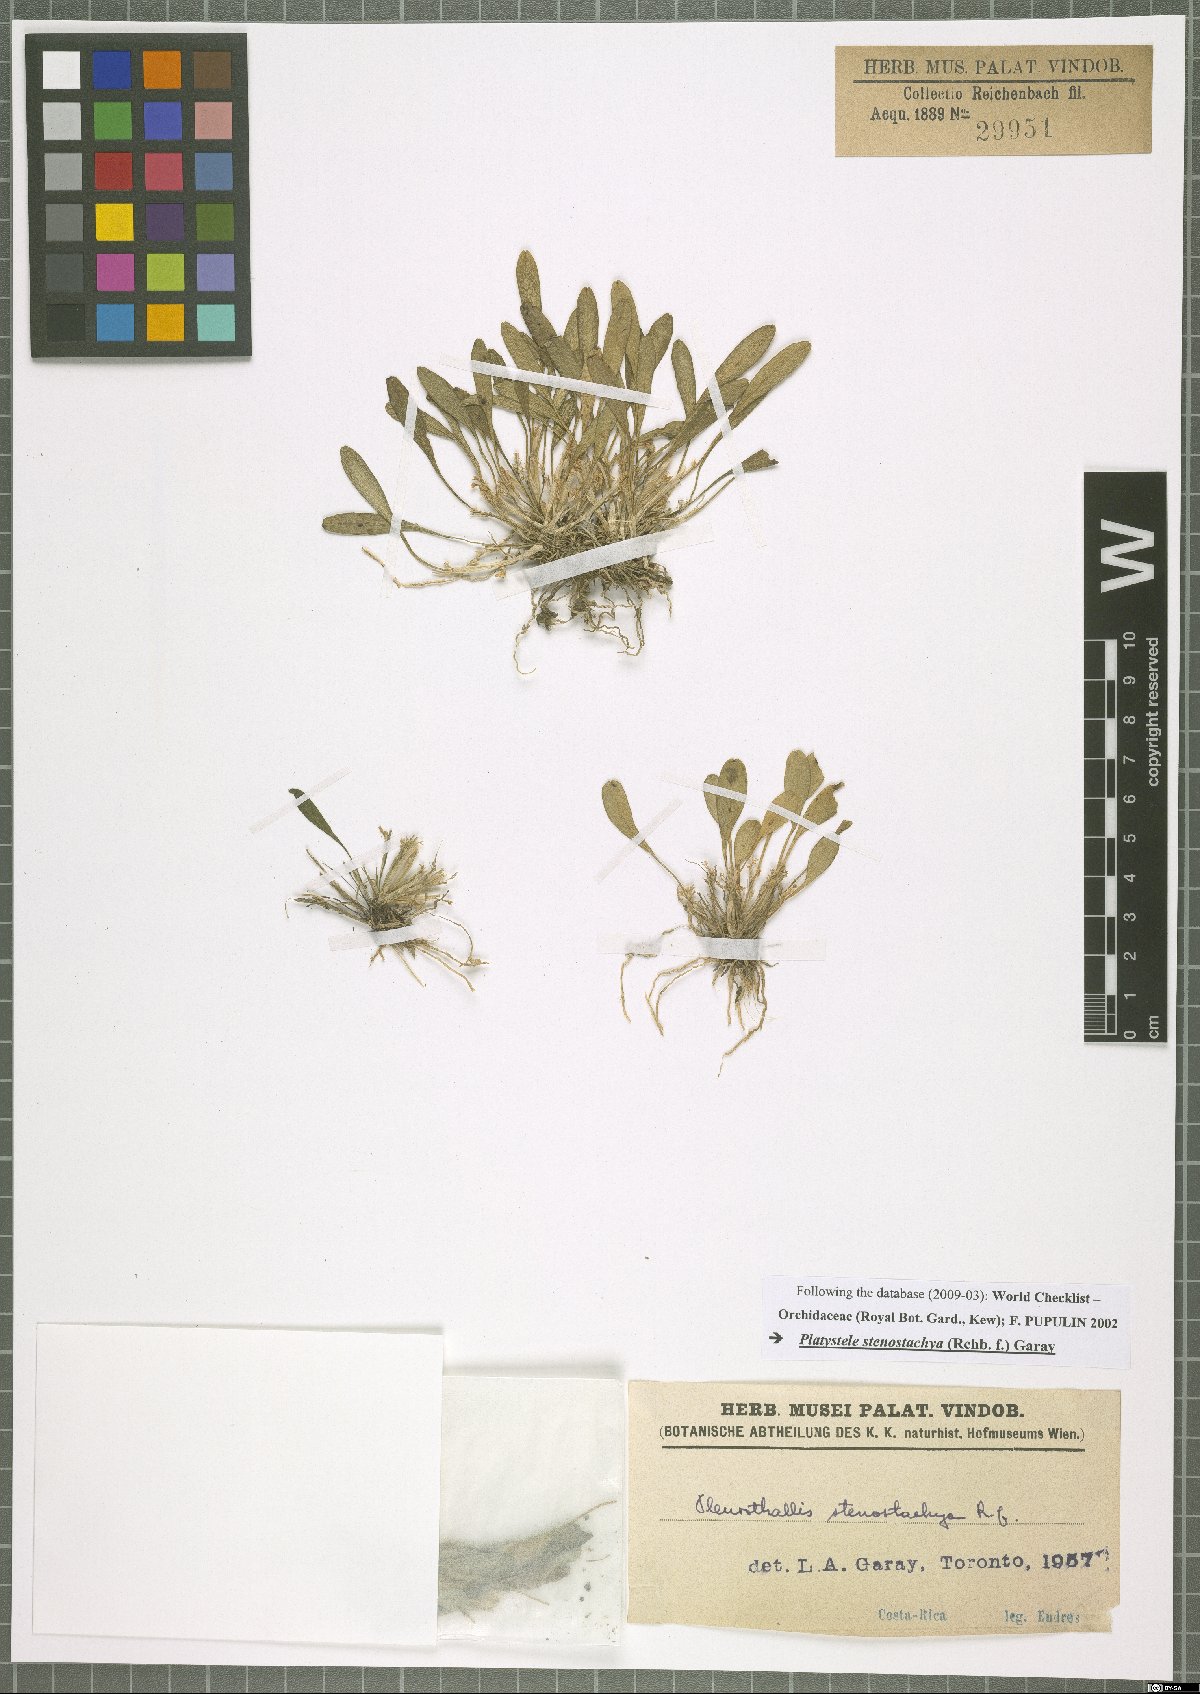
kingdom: Plantae
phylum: Tracheophyta
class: Liliopsida
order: Asparagales
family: Orchidaceae
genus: Platystele
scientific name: Platystele stenostachya
